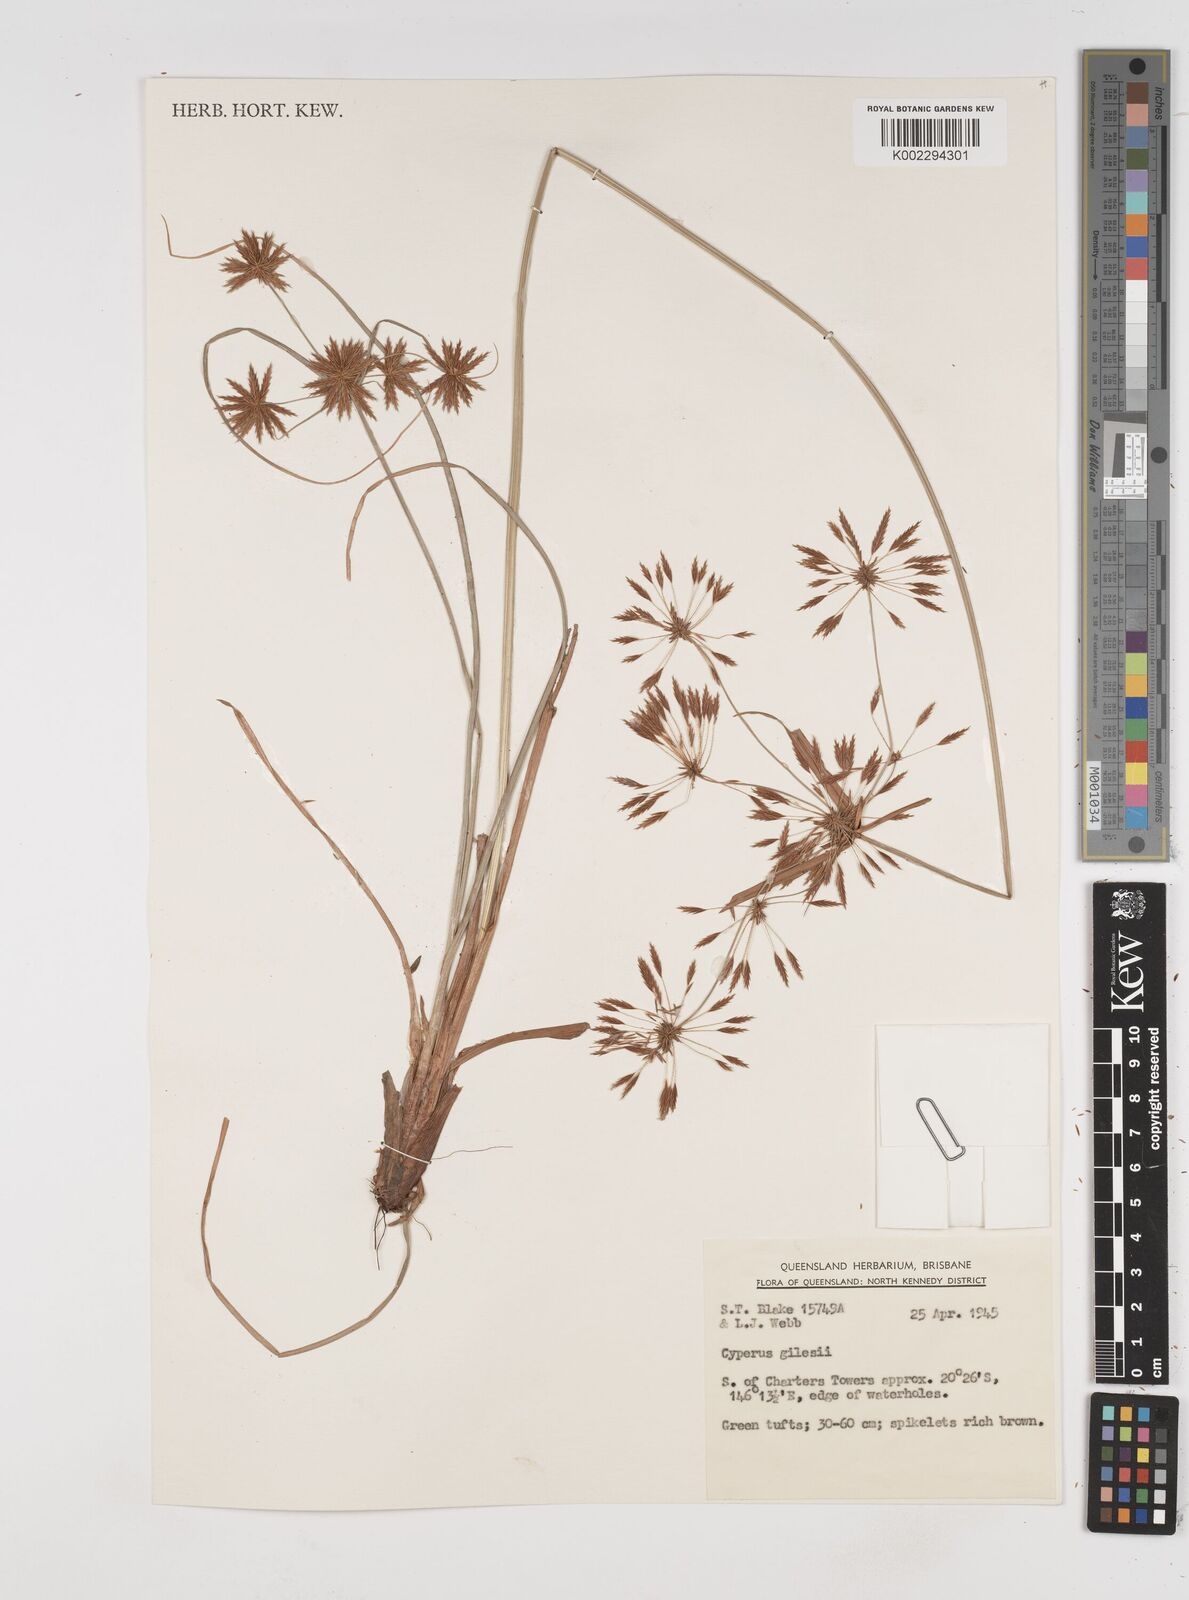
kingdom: Plantae
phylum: Tracheophyta
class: Liliopsida
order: Poales
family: Cyperaceae
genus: Cyperus
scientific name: Cyperus gilesii
